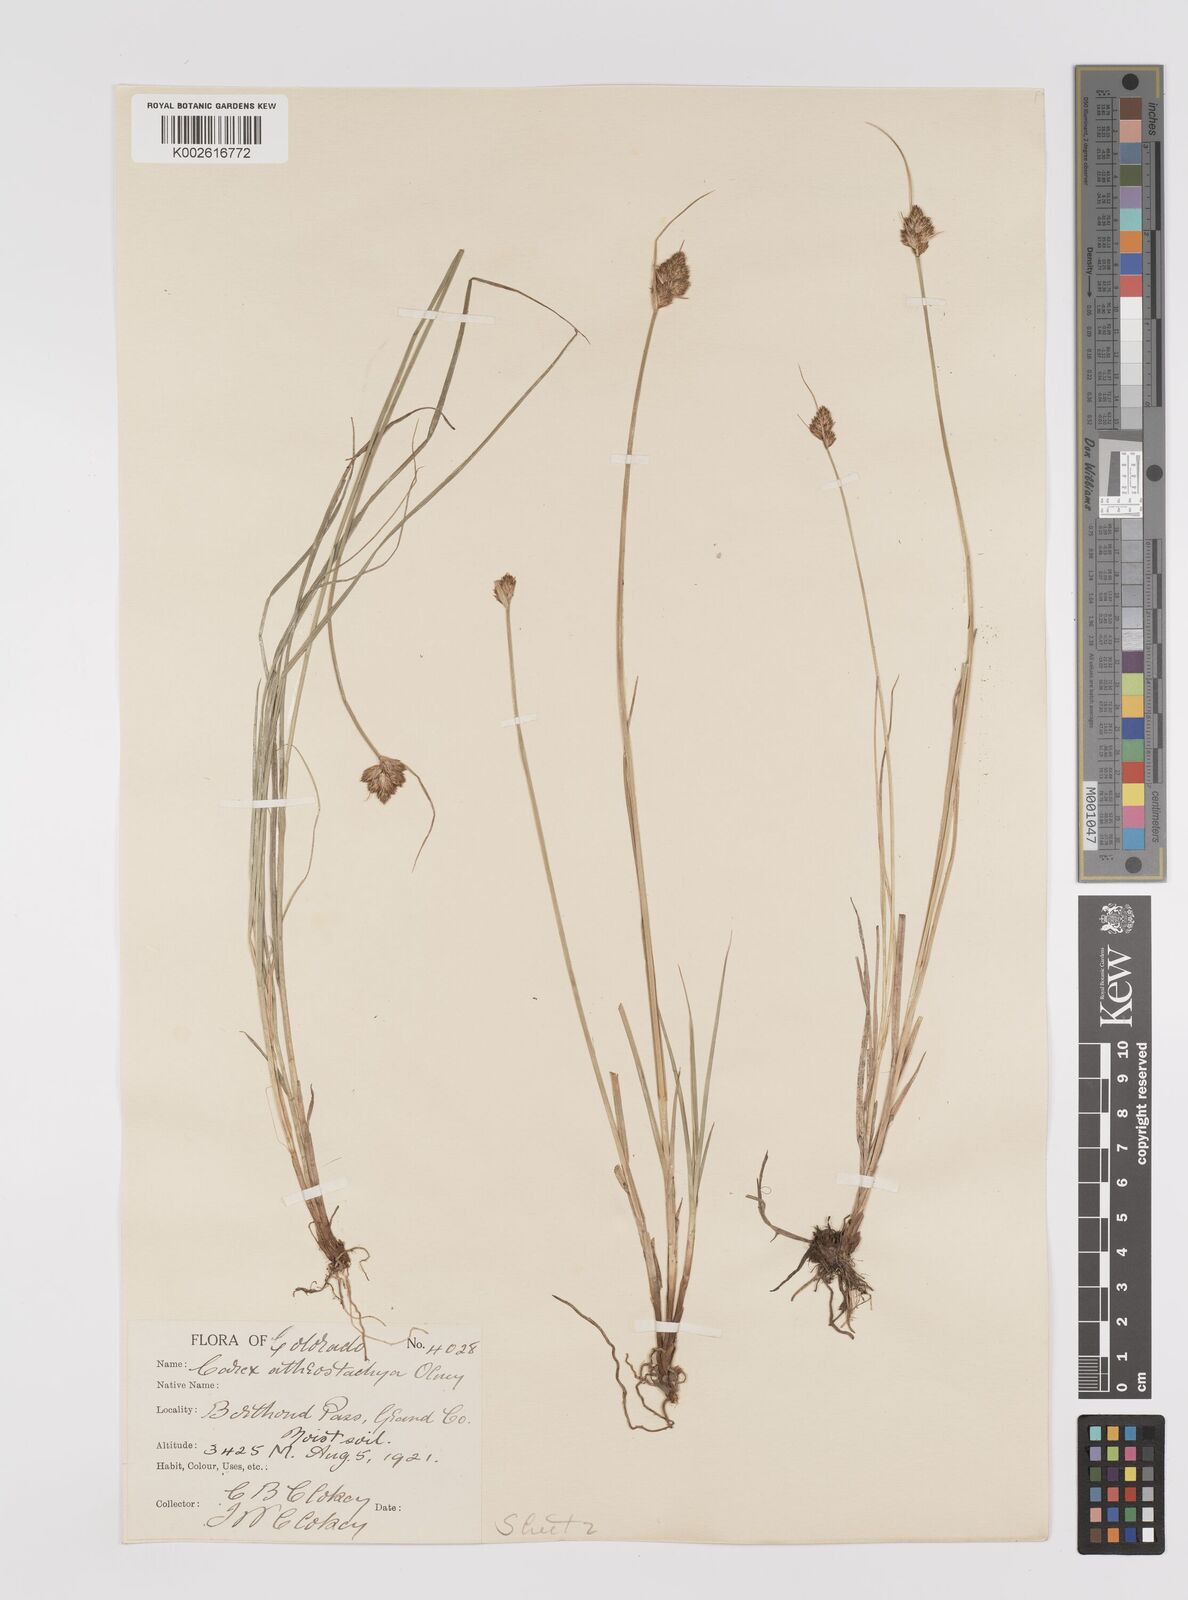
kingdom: Plantae
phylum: Tracheophyta
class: Liliopsida
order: Poales
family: Cyperaceae
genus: Carex
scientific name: Carex athrostachya
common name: Slenderbeak sedge
